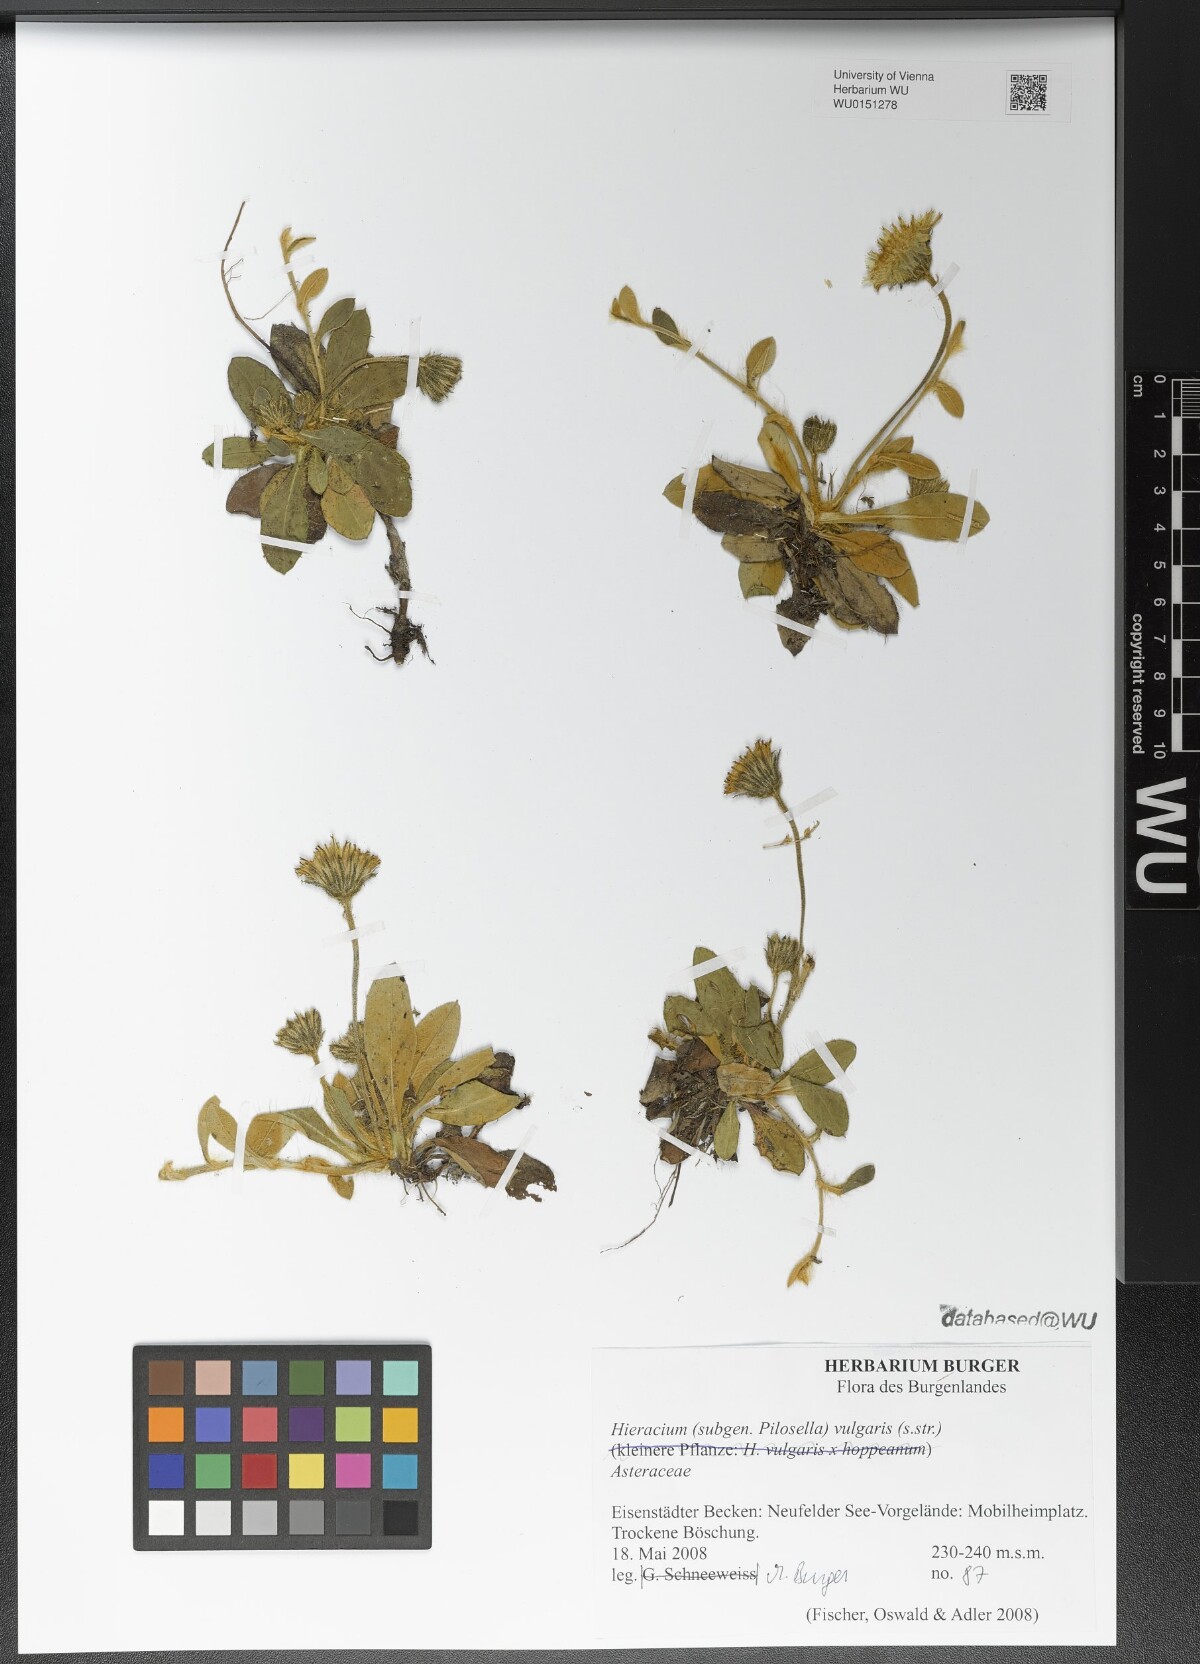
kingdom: Plantae
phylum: Tracheophyta
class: Magnoliopsida
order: Asterales
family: Asteraceae
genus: Hieracium
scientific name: Hieracium
